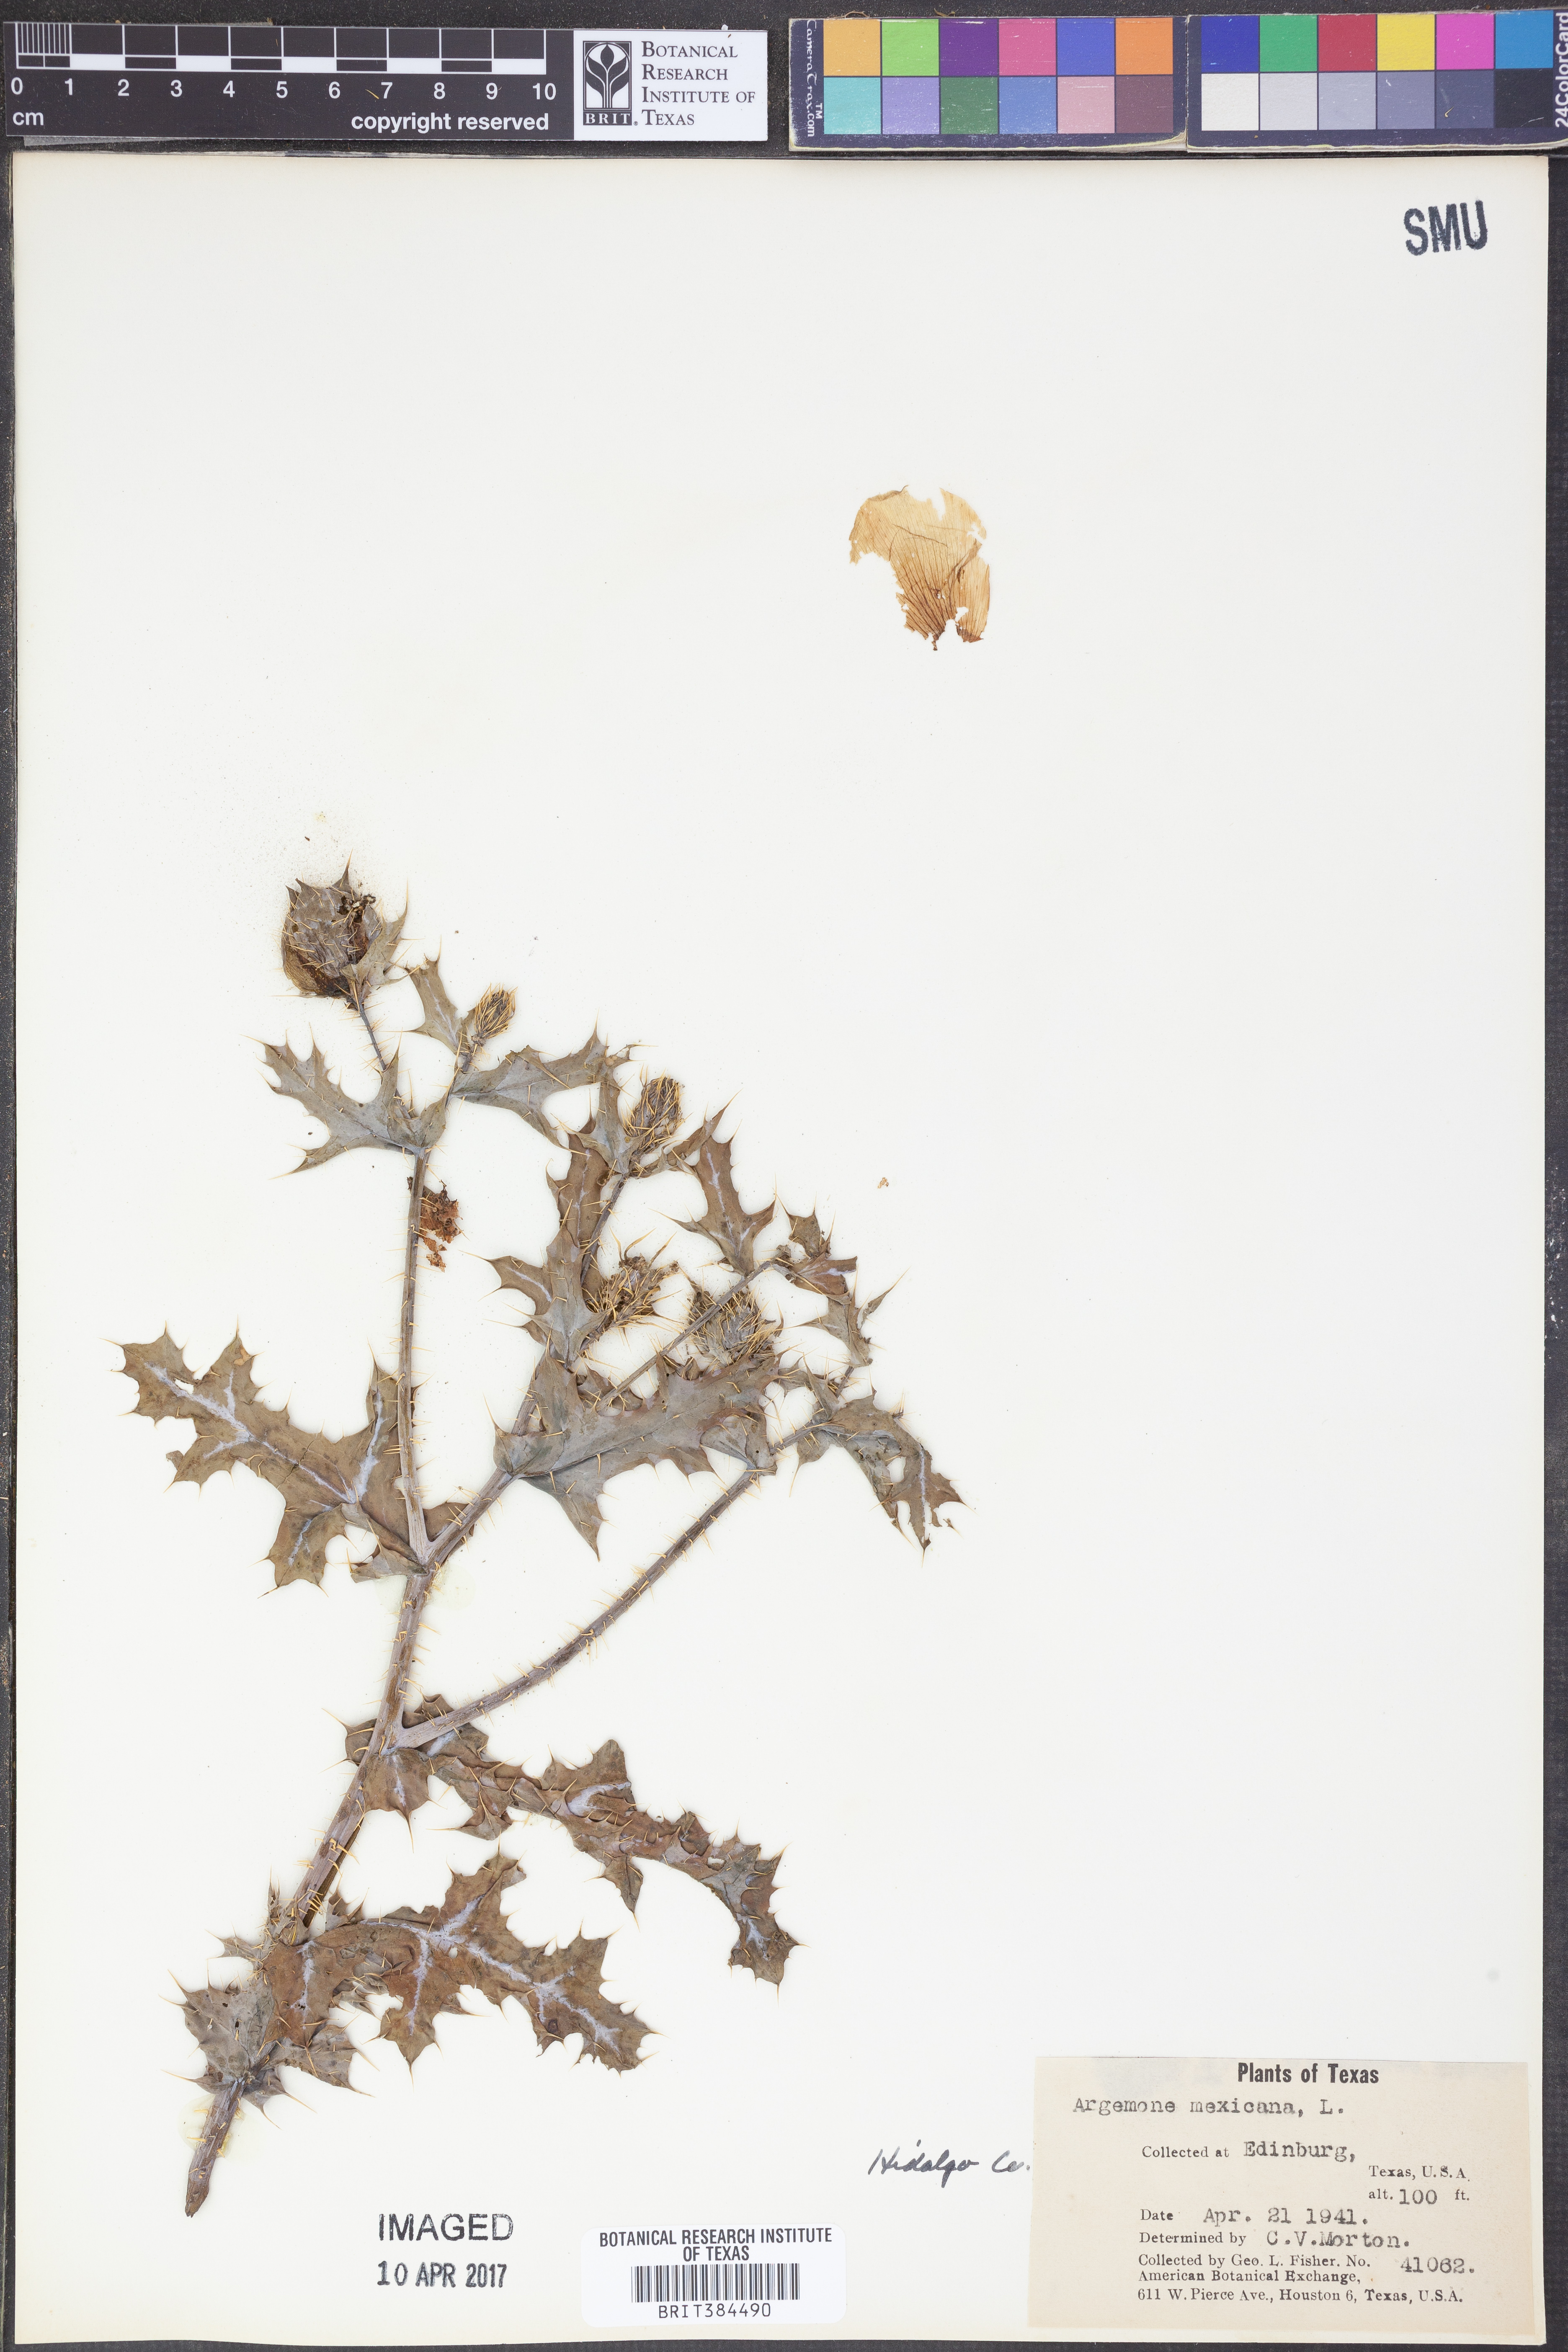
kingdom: Plantae
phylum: Tracheophyta
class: Magnoliopsida
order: Ranunculales
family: Papaveraceae
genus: Argemone
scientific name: Argemone mexicana
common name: Mexican poppy
